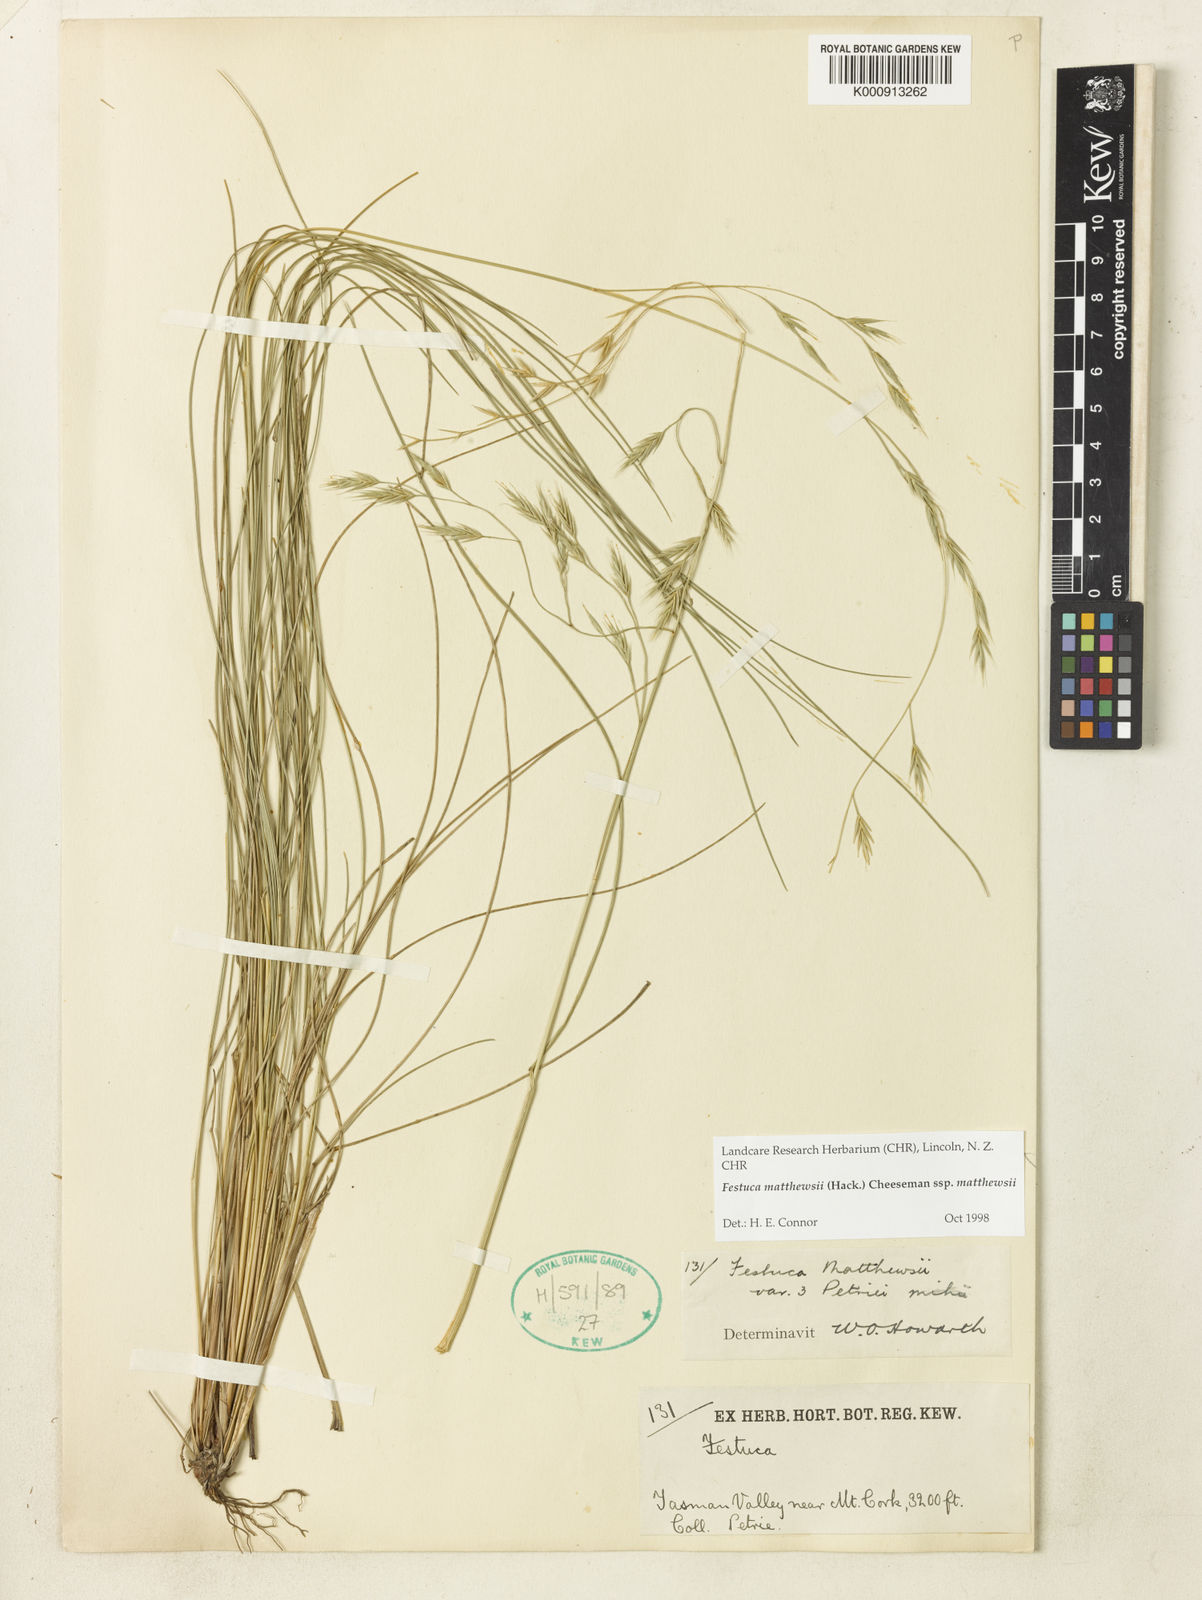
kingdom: Plantae
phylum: Tracheophyta
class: Liliopsida
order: Poales
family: Poaceae
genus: Festuca
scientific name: Festuca matthewsii
